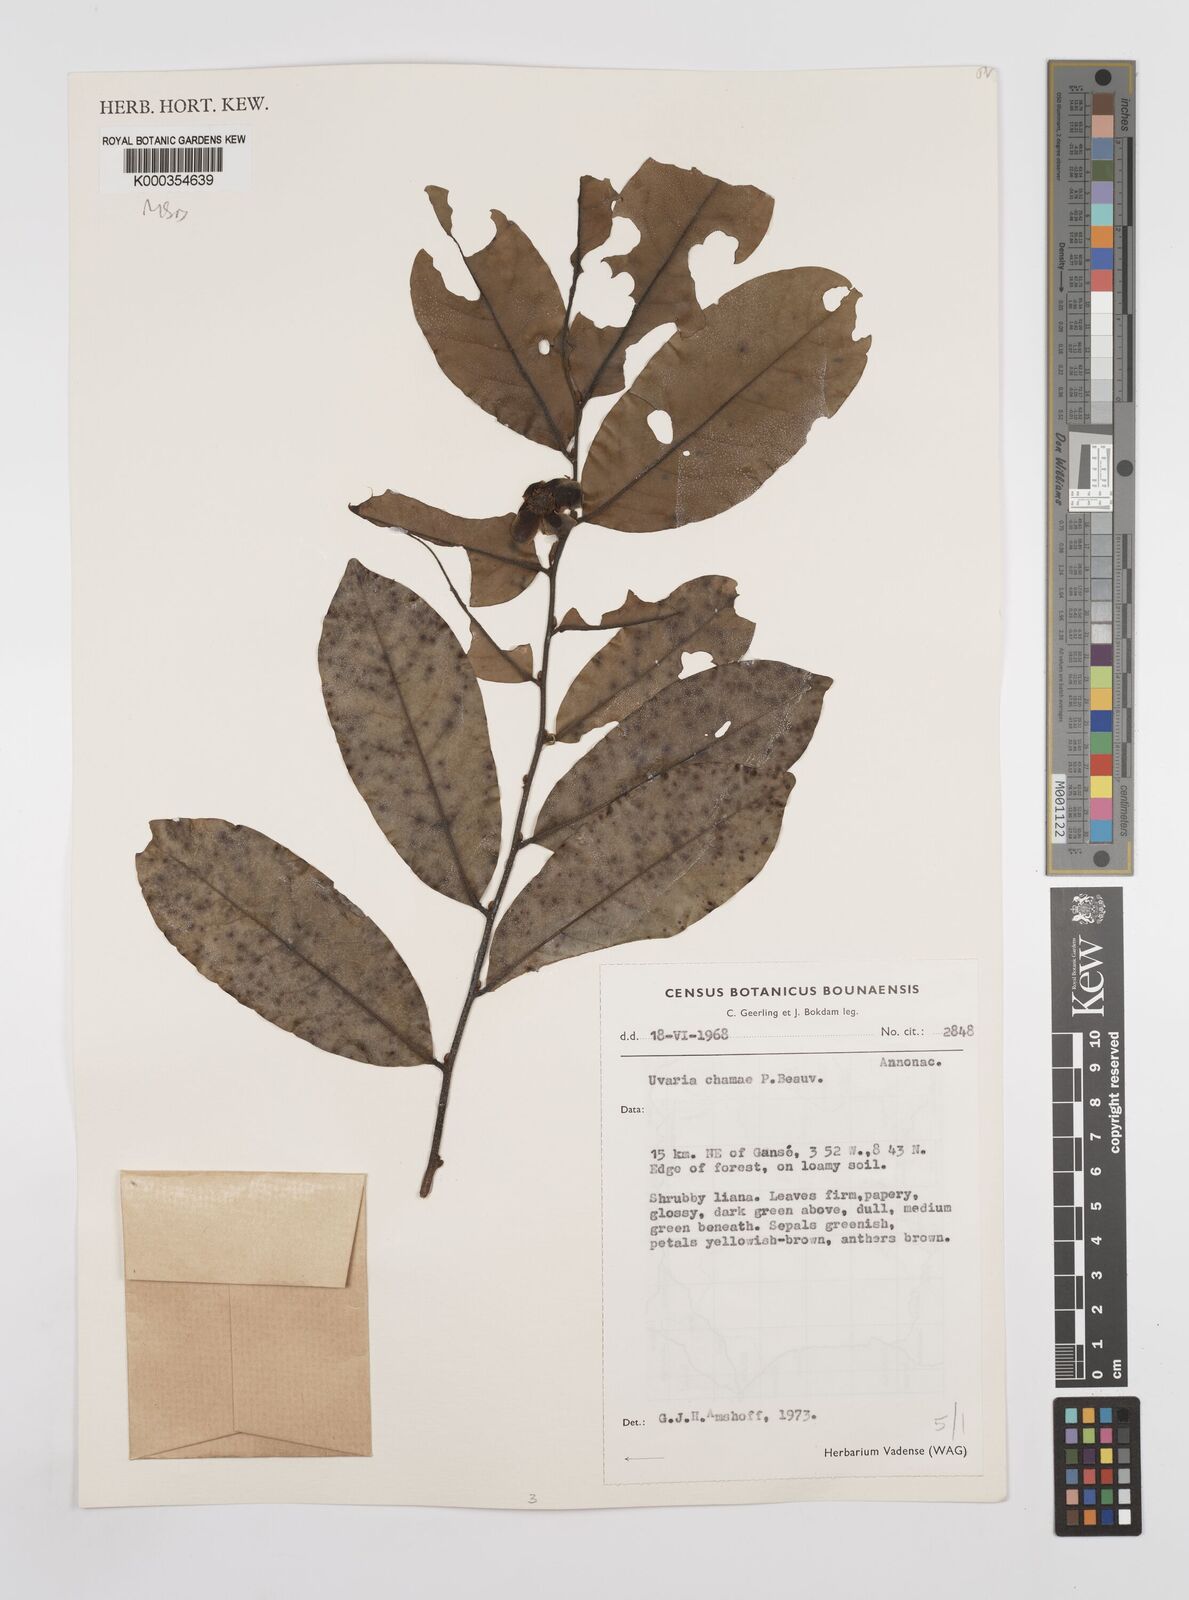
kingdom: Plantae
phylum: Tracheophyta
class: Magnoliopsida
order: Magnoliales
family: Annonaceae
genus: Uvaria
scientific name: Uvaria chamae
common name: Finger-root
